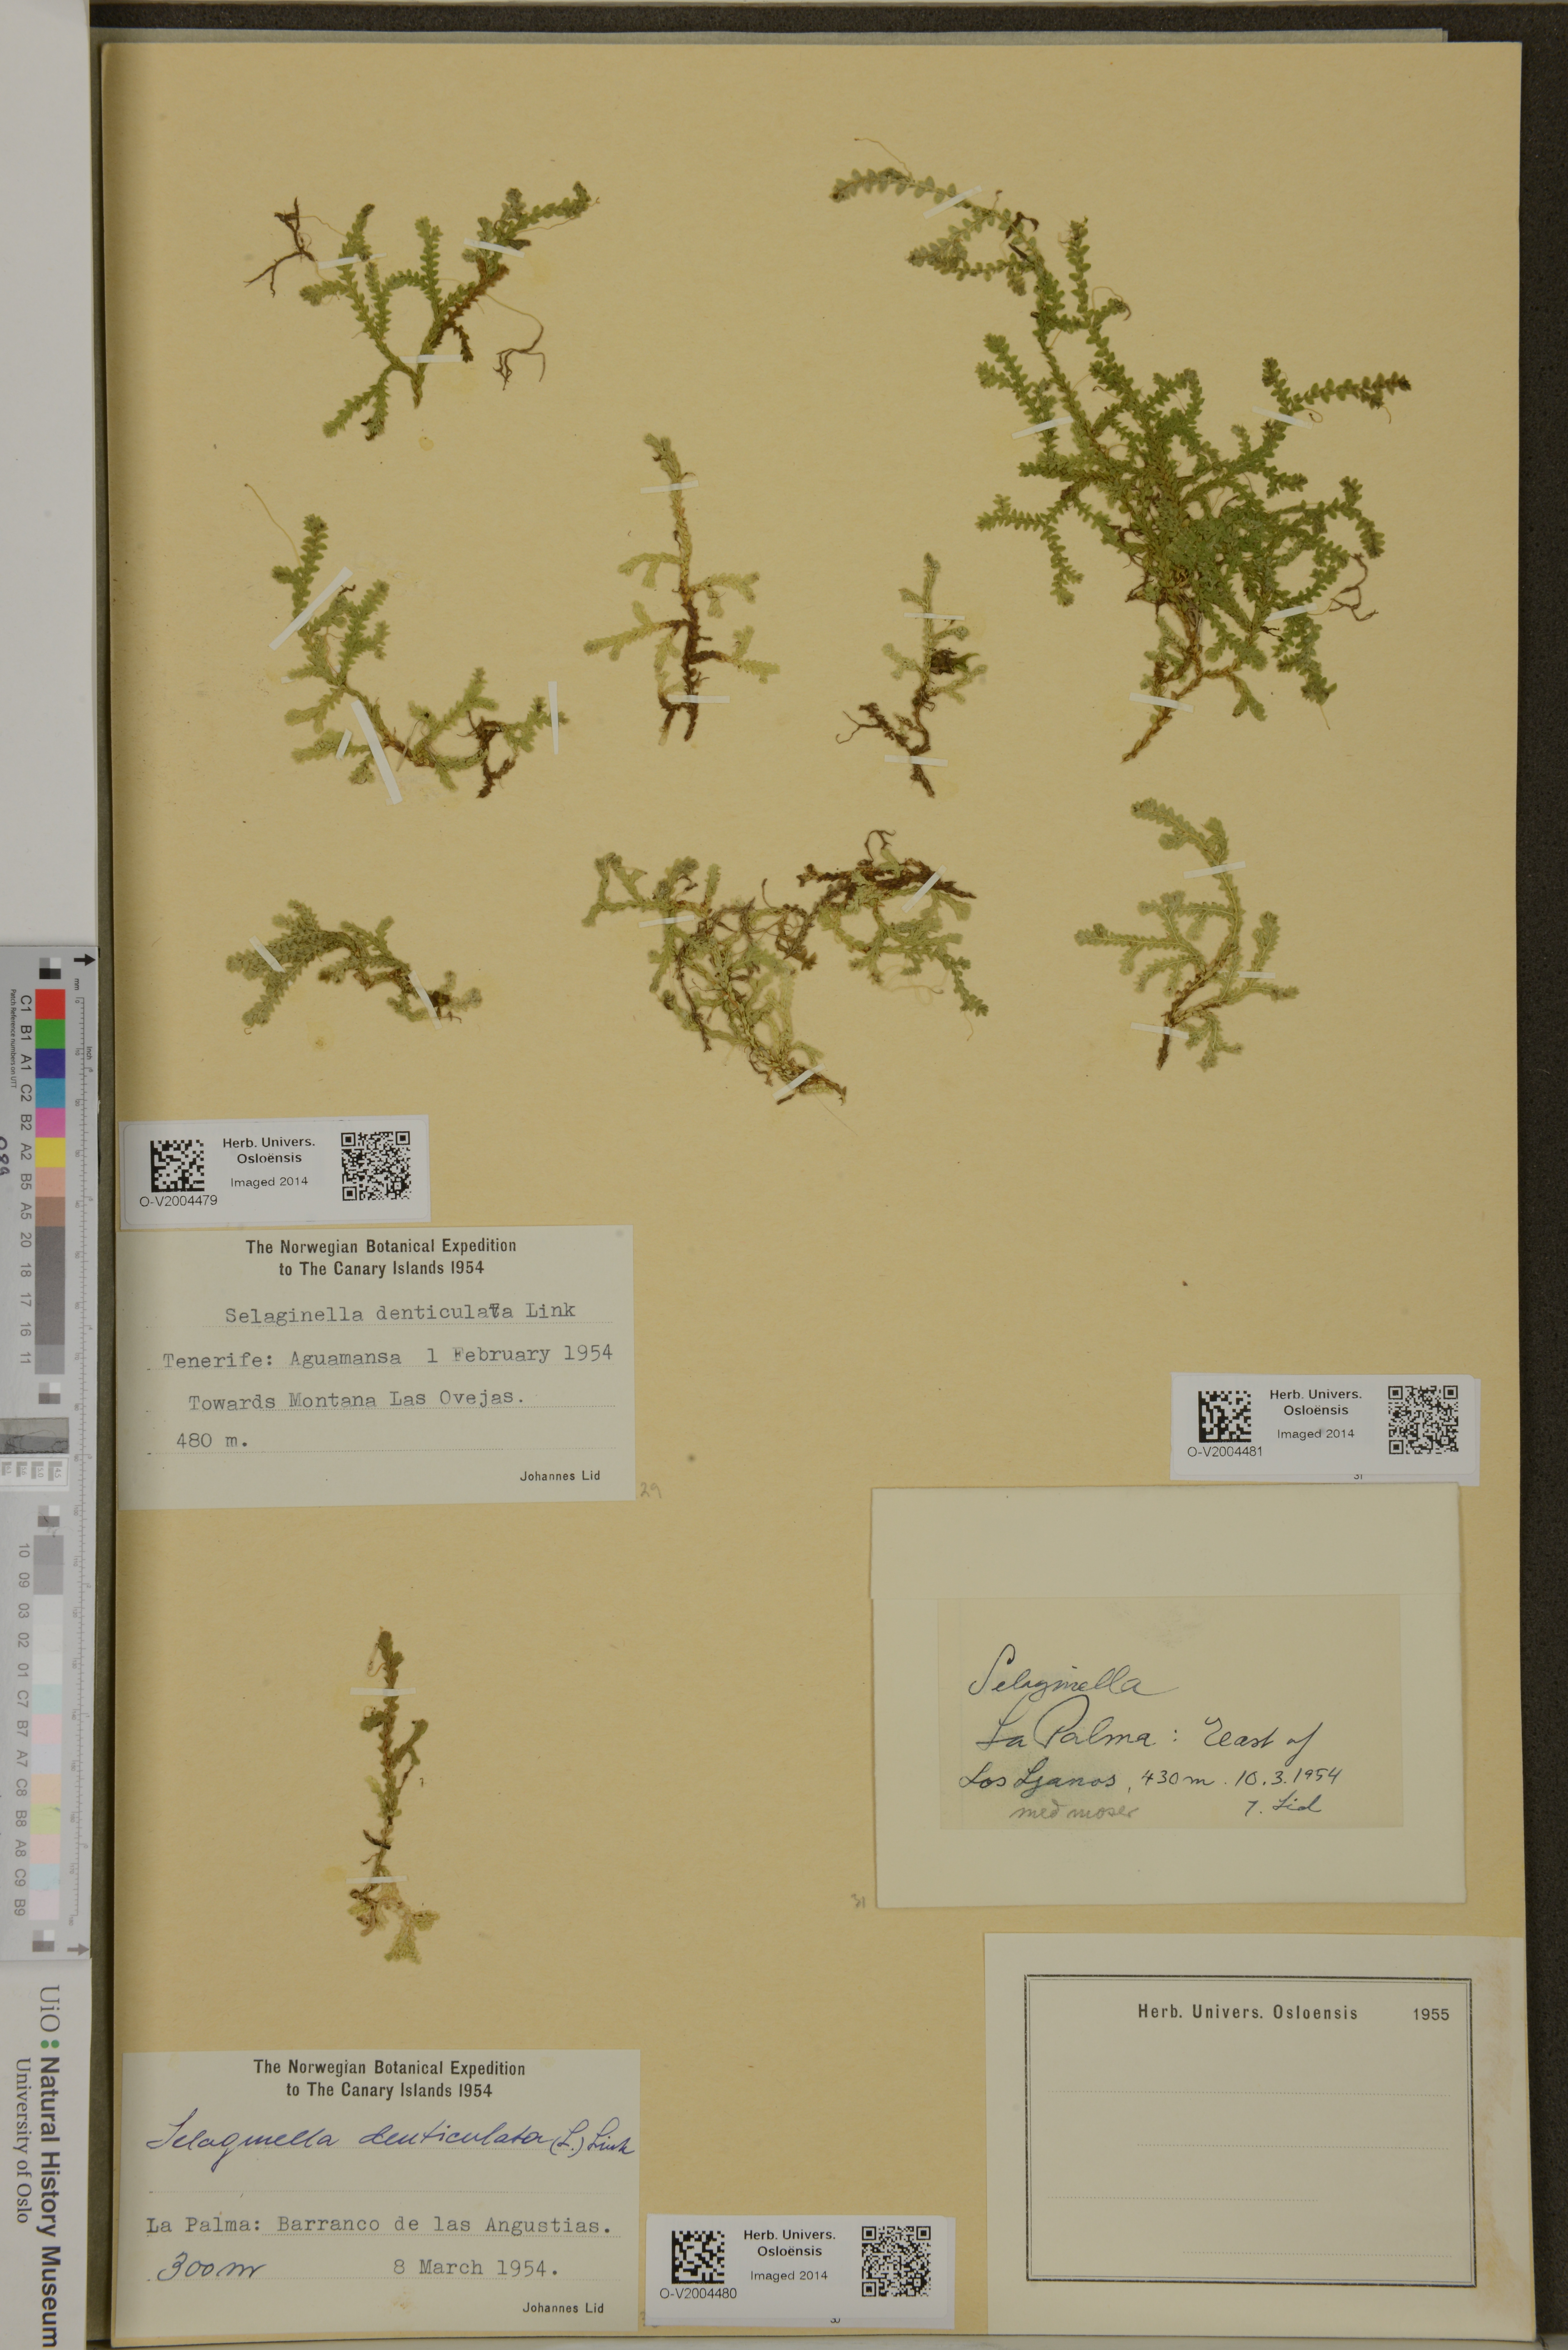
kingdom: Plantae
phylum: Tracheophyta
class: Lycopodiopsida
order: Selaginellales
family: Selaginellaceae
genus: Selaginella
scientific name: Selaginella
